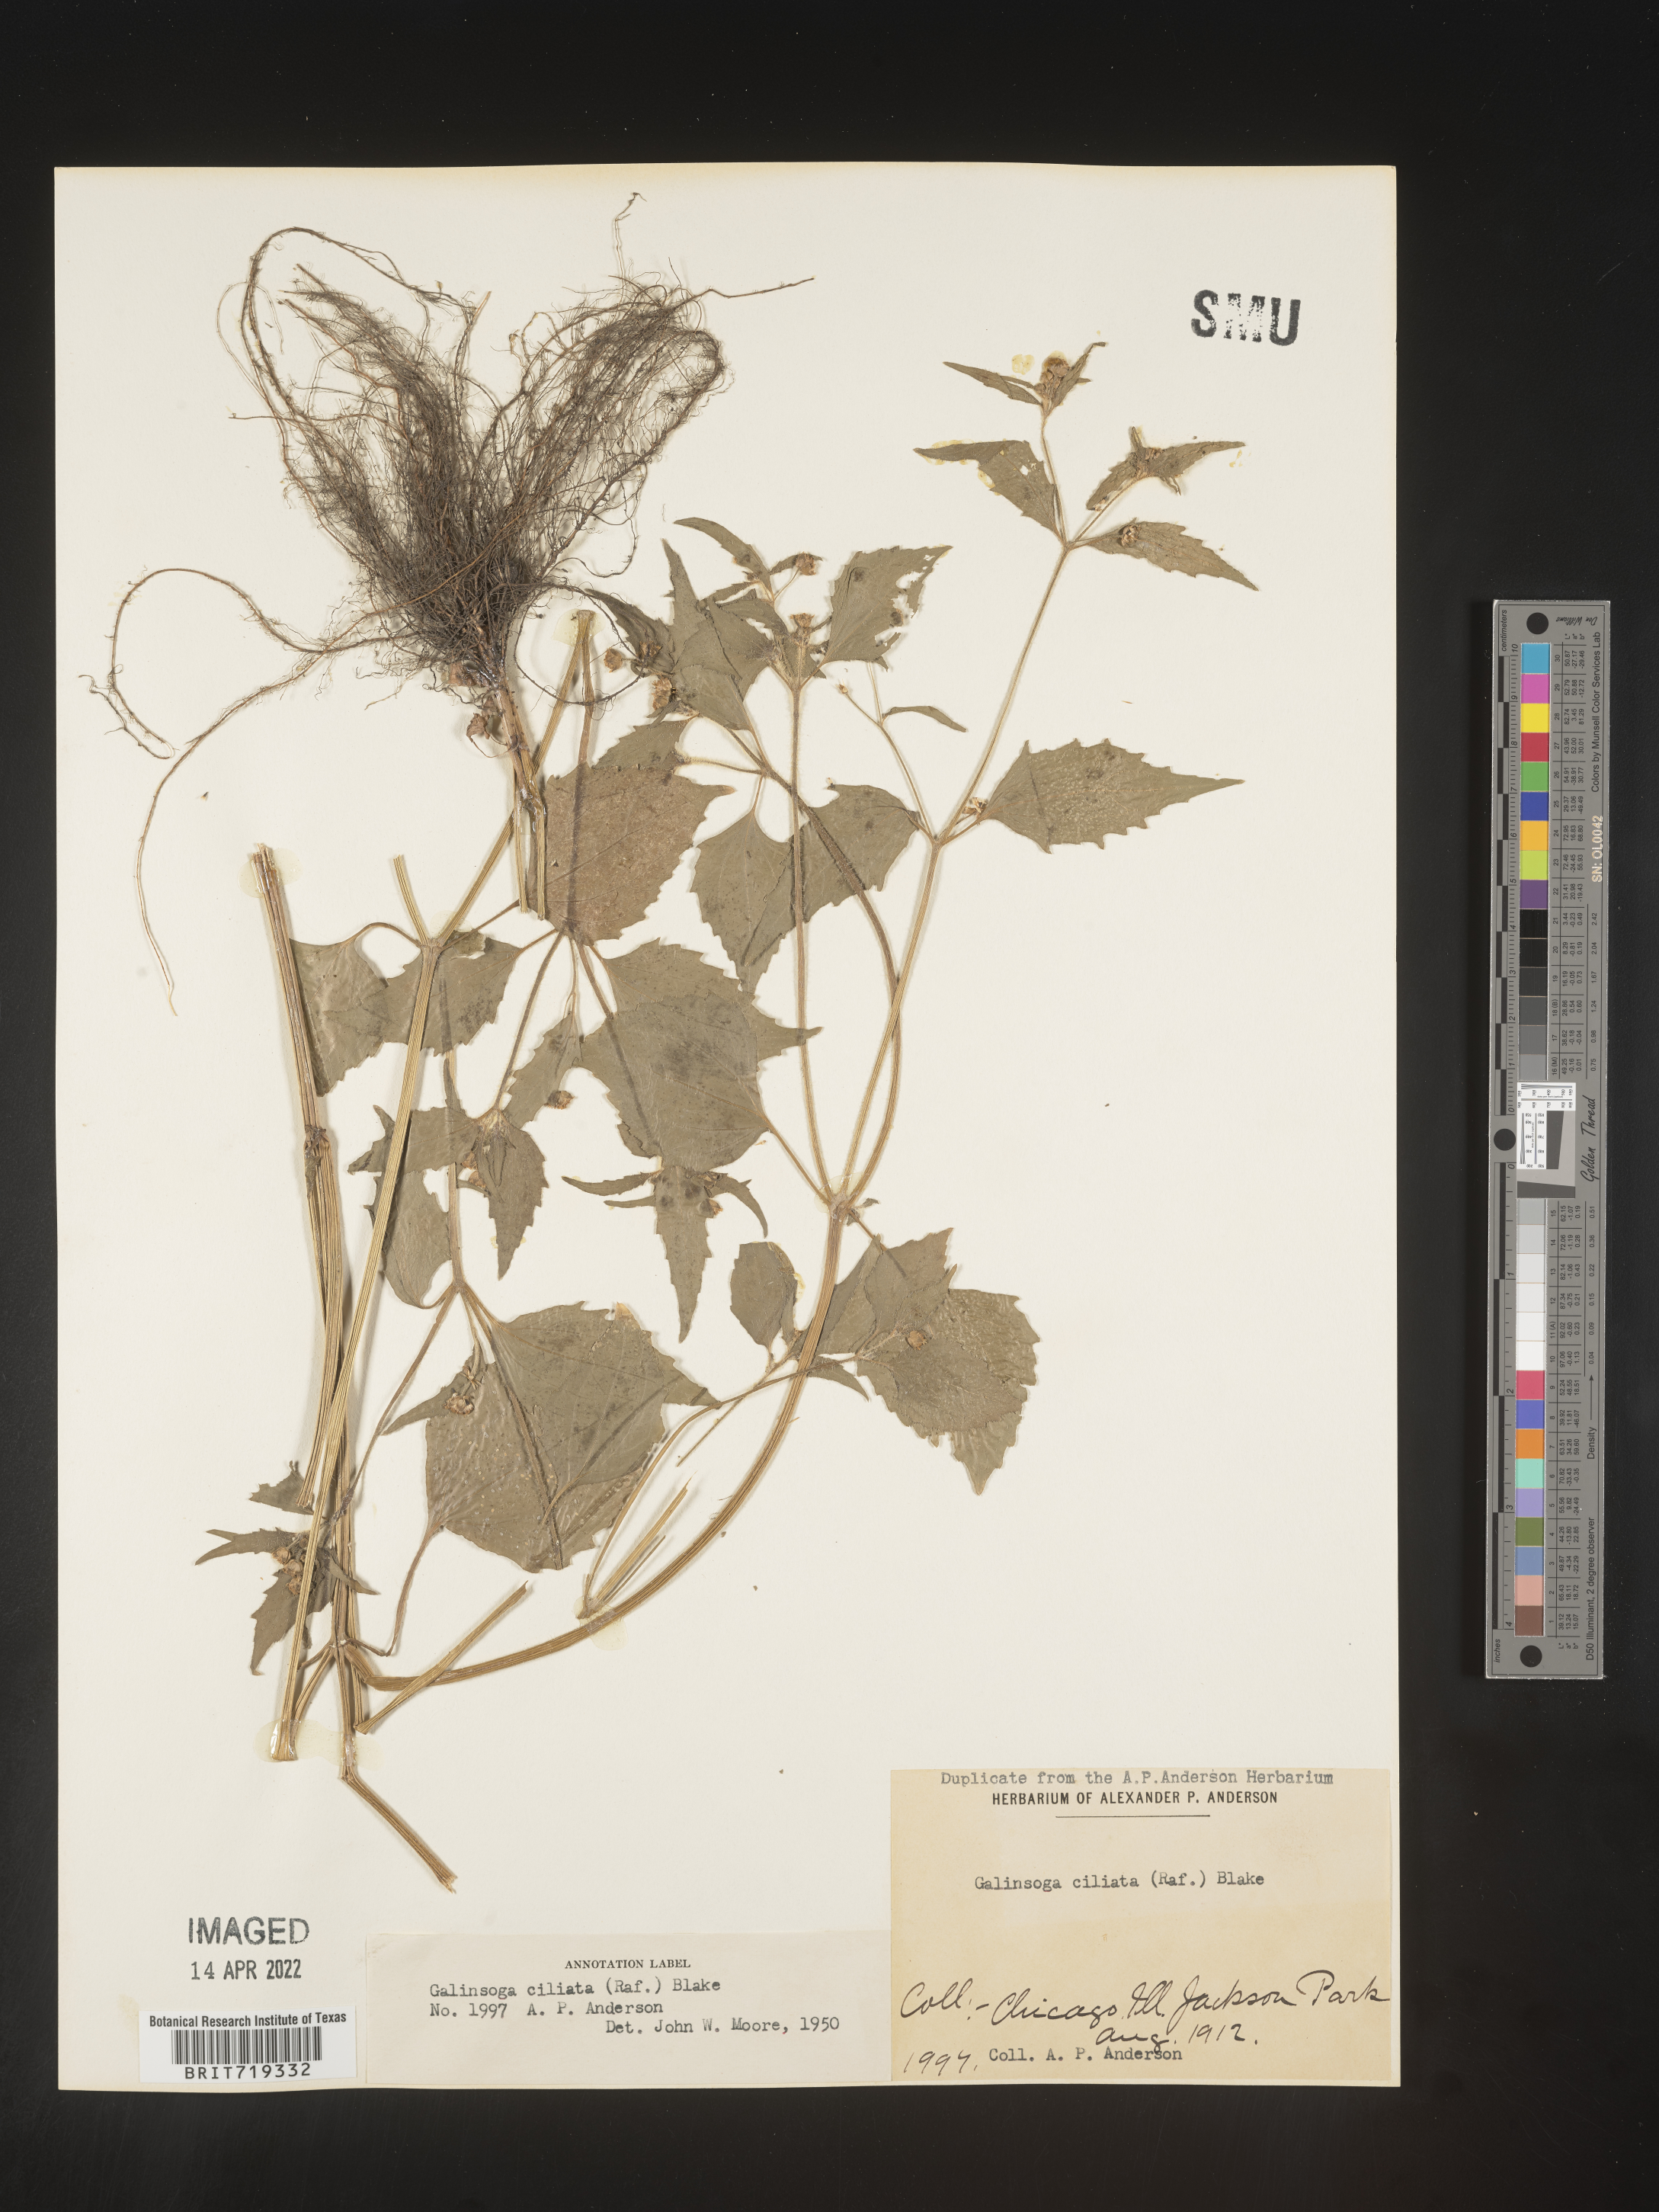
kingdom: Plantae
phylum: Tracheophyta
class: Magnoliopsida
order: Asterales
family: Asteraceae
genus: Galinsoga
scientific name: Galinsoga quadriradiata
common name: Shaggy soldier
